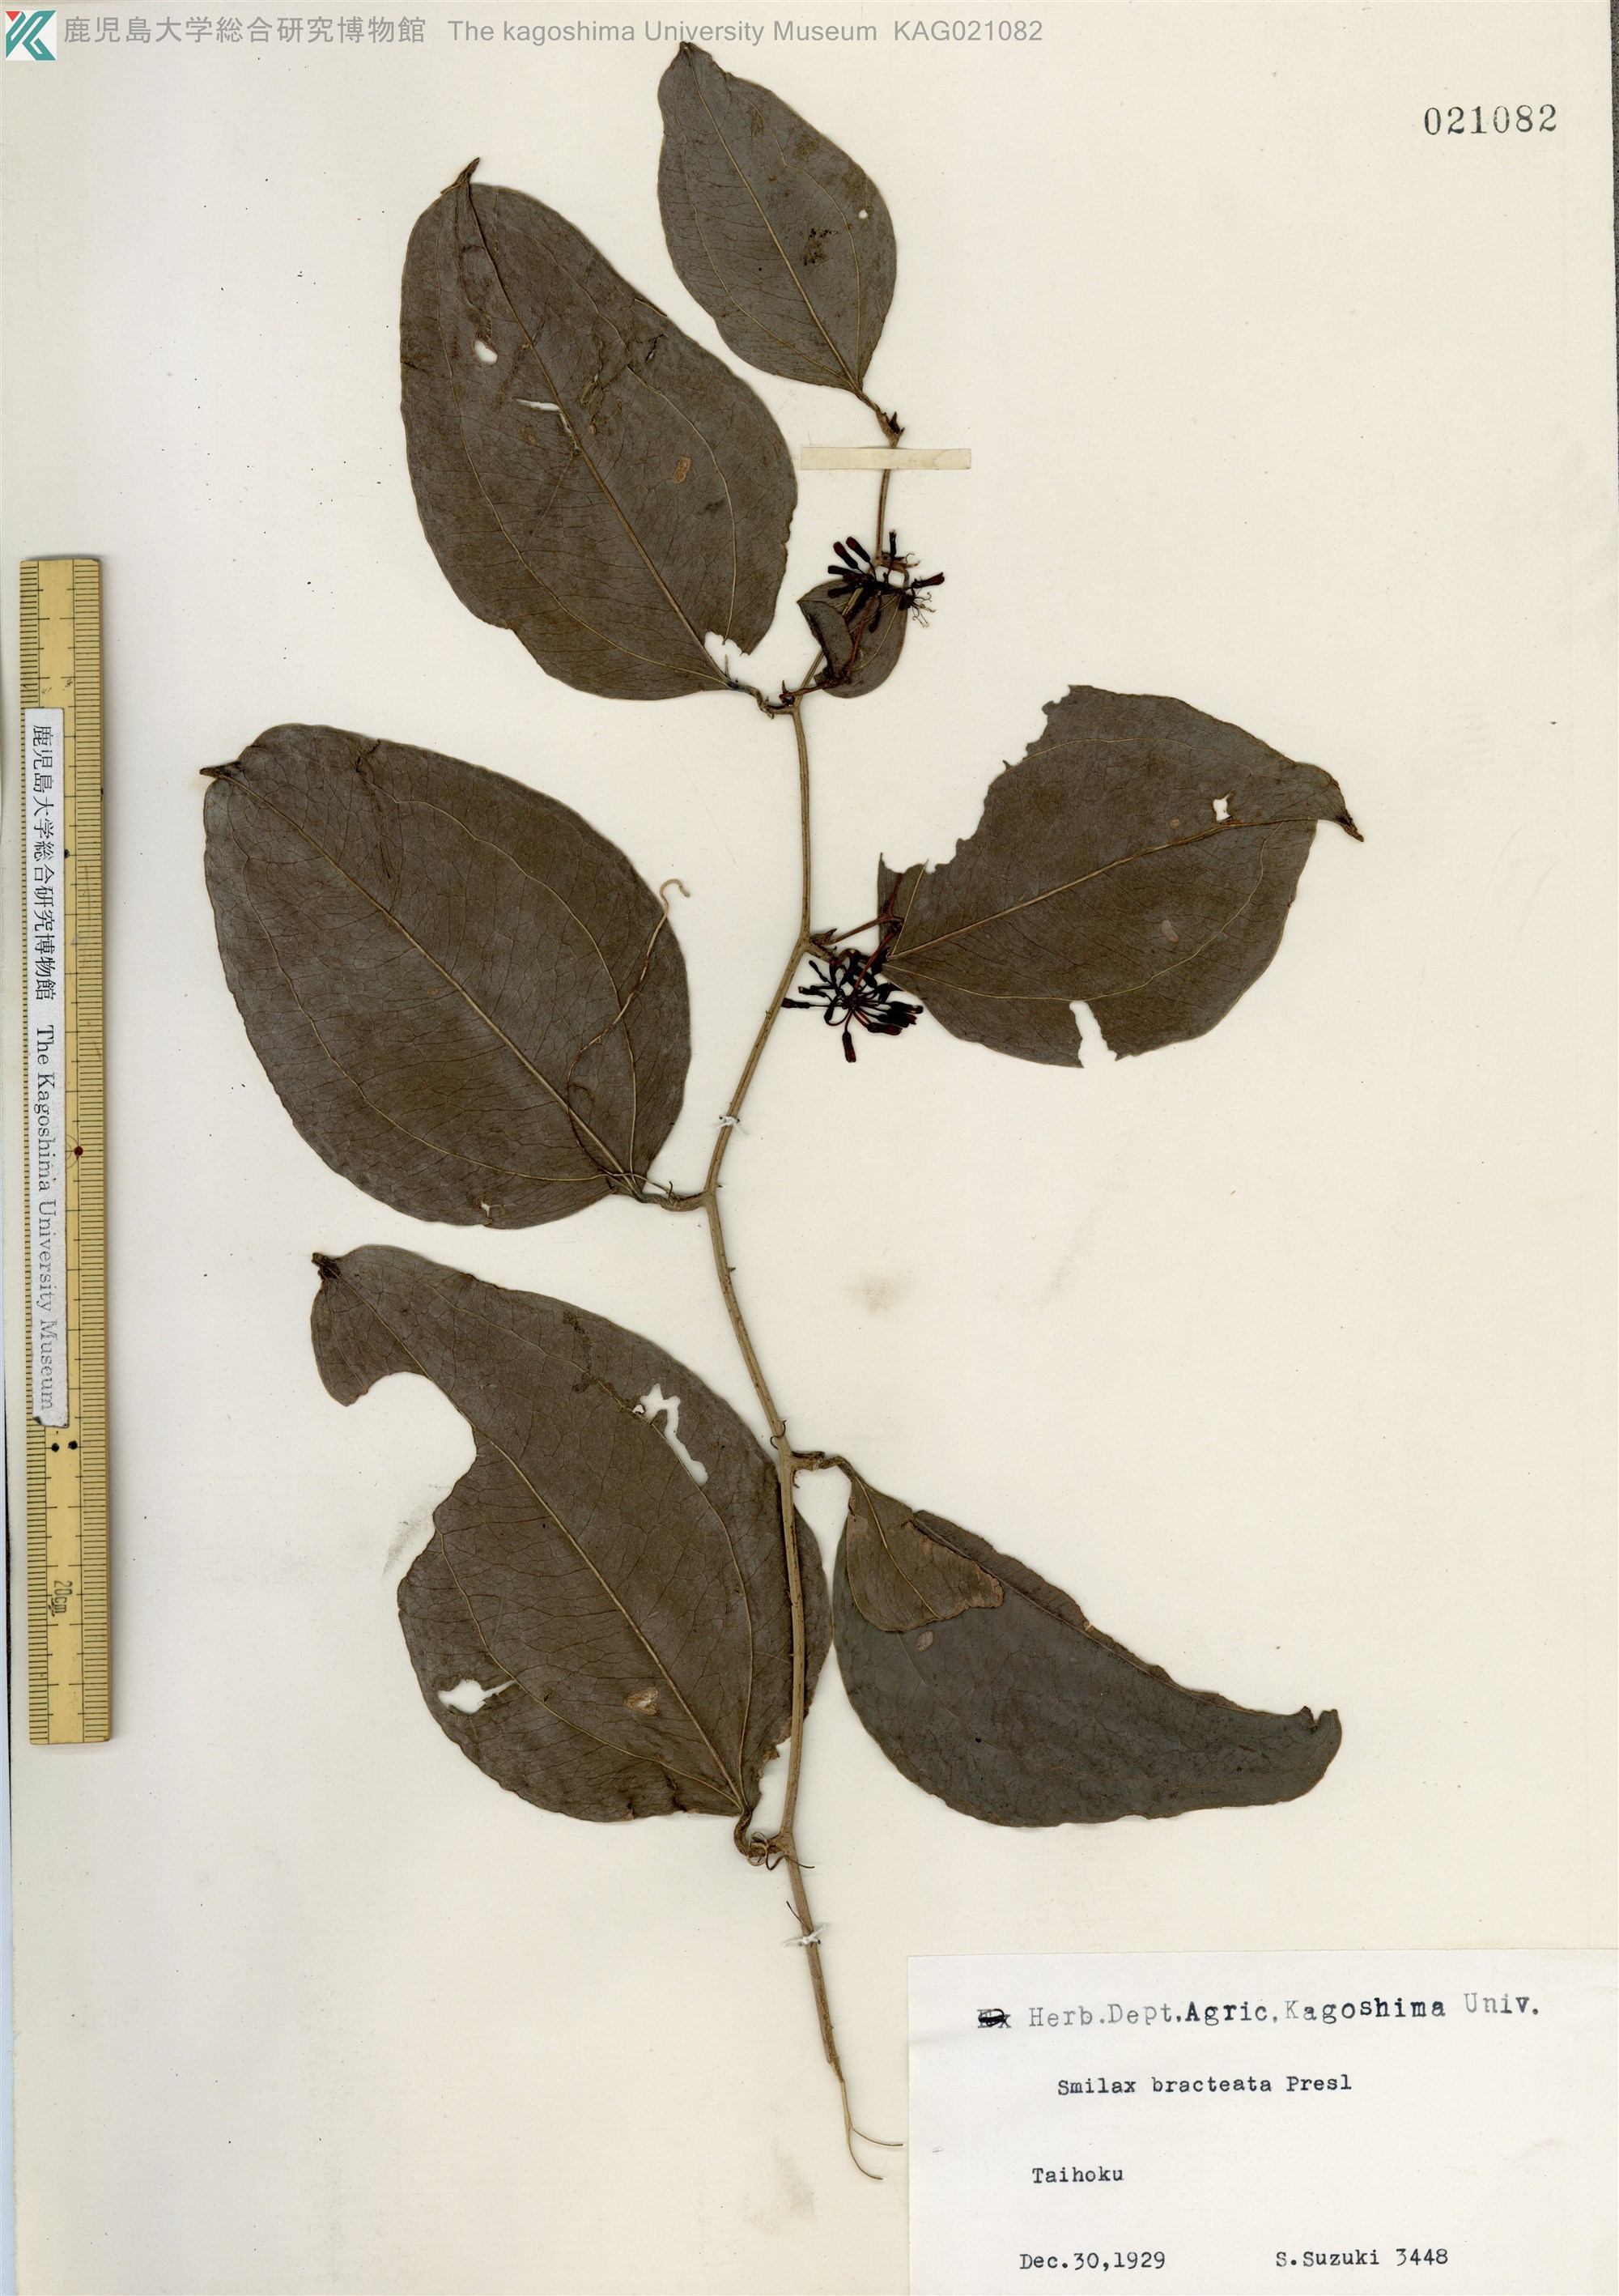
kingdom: Plantae
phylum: Tracheophyta
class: Liliopsida
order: Liliales
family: Smilacaceae
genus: Smilax
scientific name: Smilax bracteata
